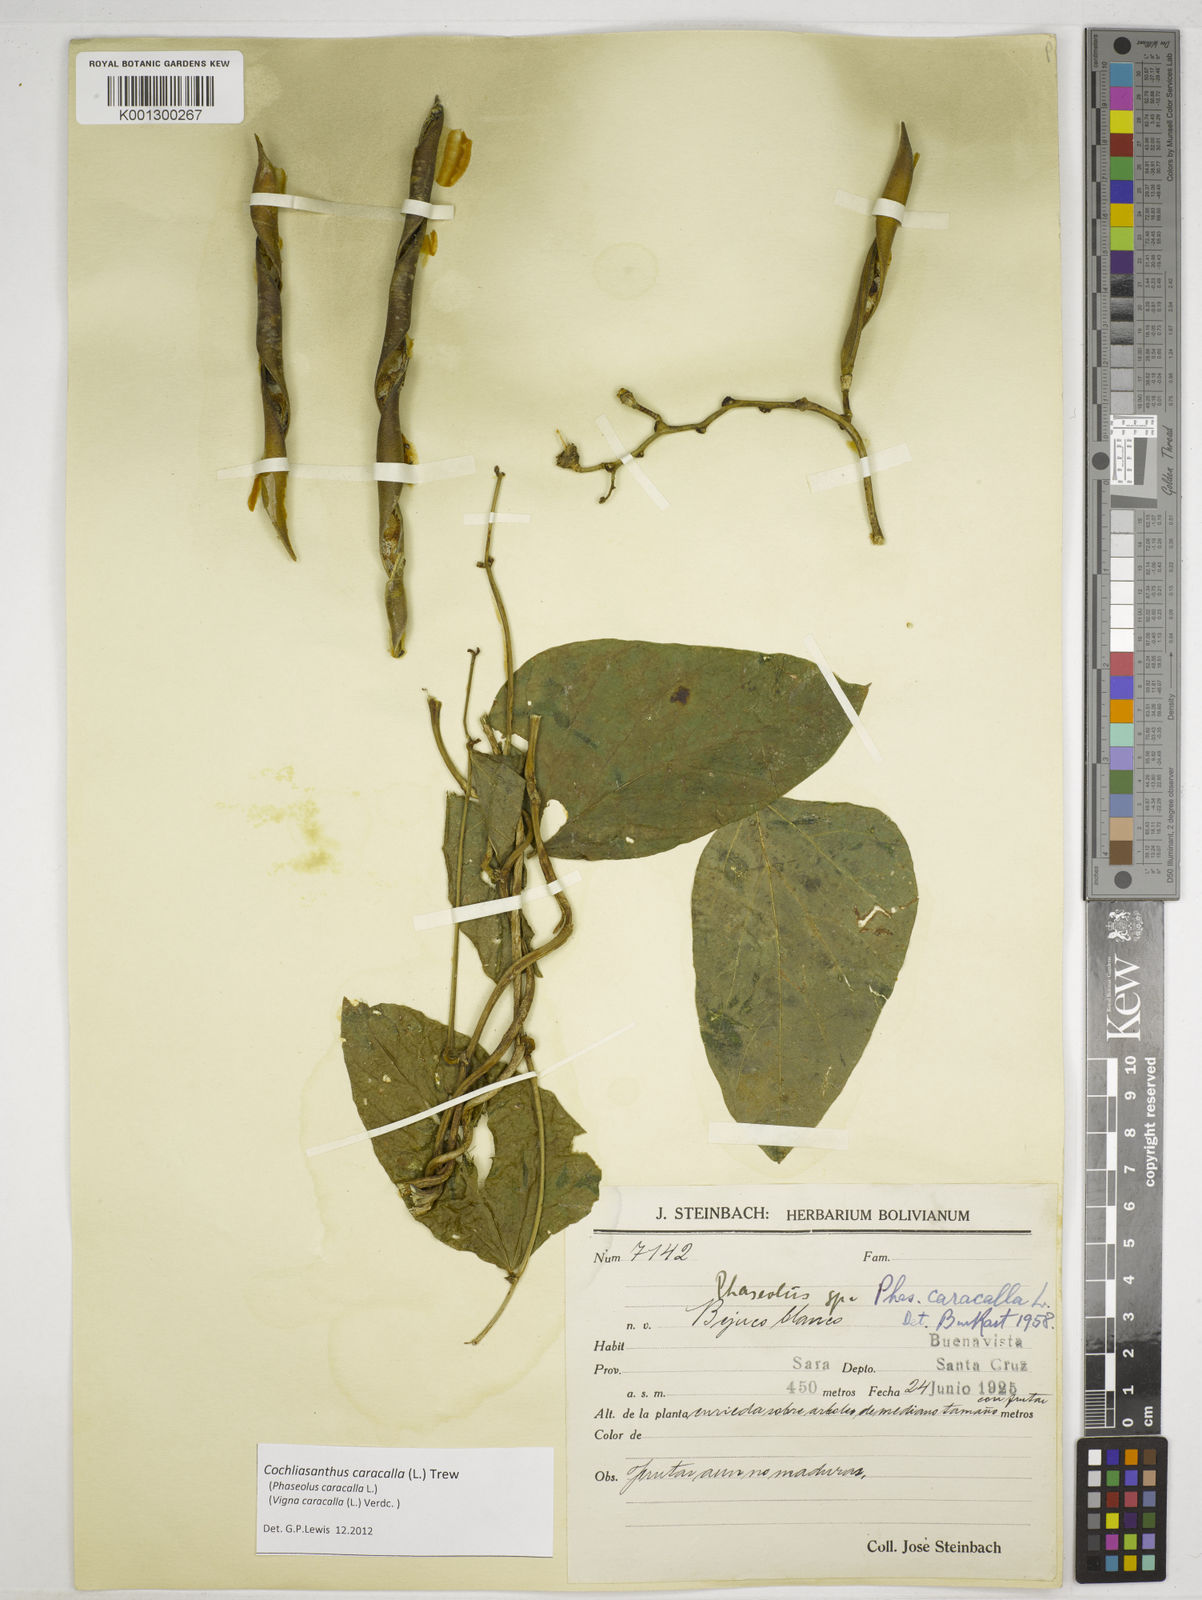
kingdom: Plantae
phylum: Tracheophyta
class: Magnoliopsida
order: Fabales
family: Fabaceae
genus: Cochliasanthus
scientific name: Cochliasanthus caracalla
